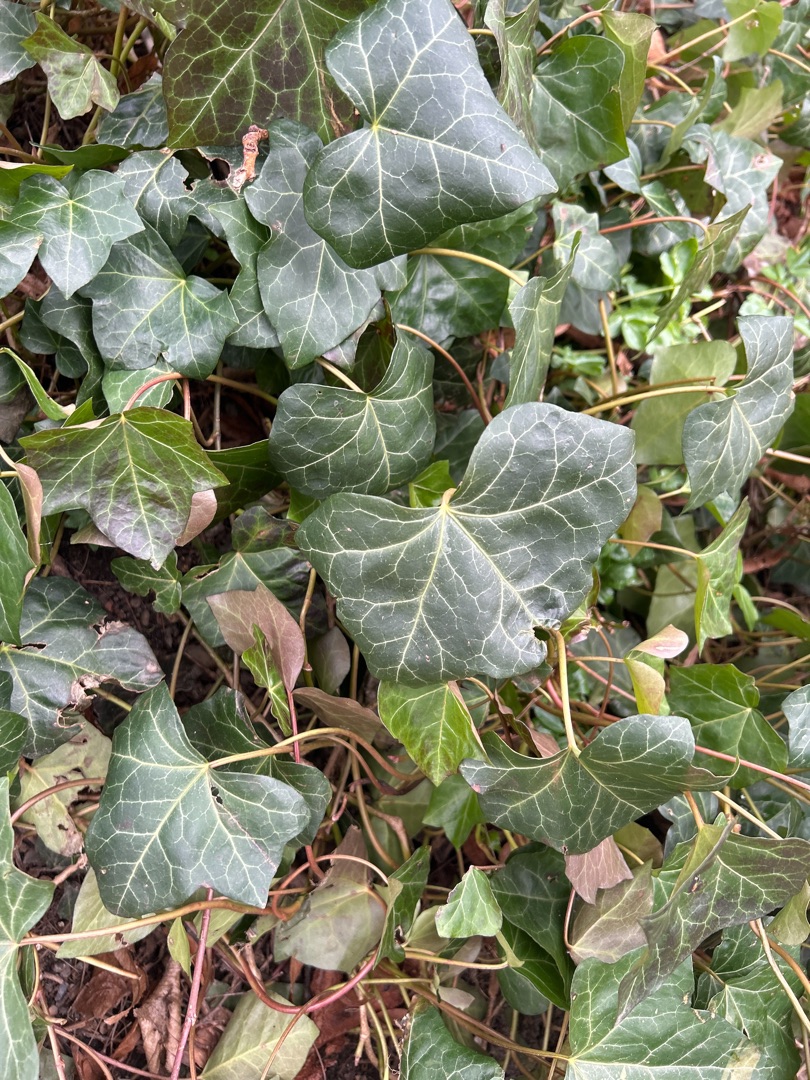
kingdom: Plantae
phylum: Tracheophyta
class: Magnoliopsida
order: Apiales
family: Araliaceae
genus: Hedera
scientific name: Hedera helix
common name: Vedbend
